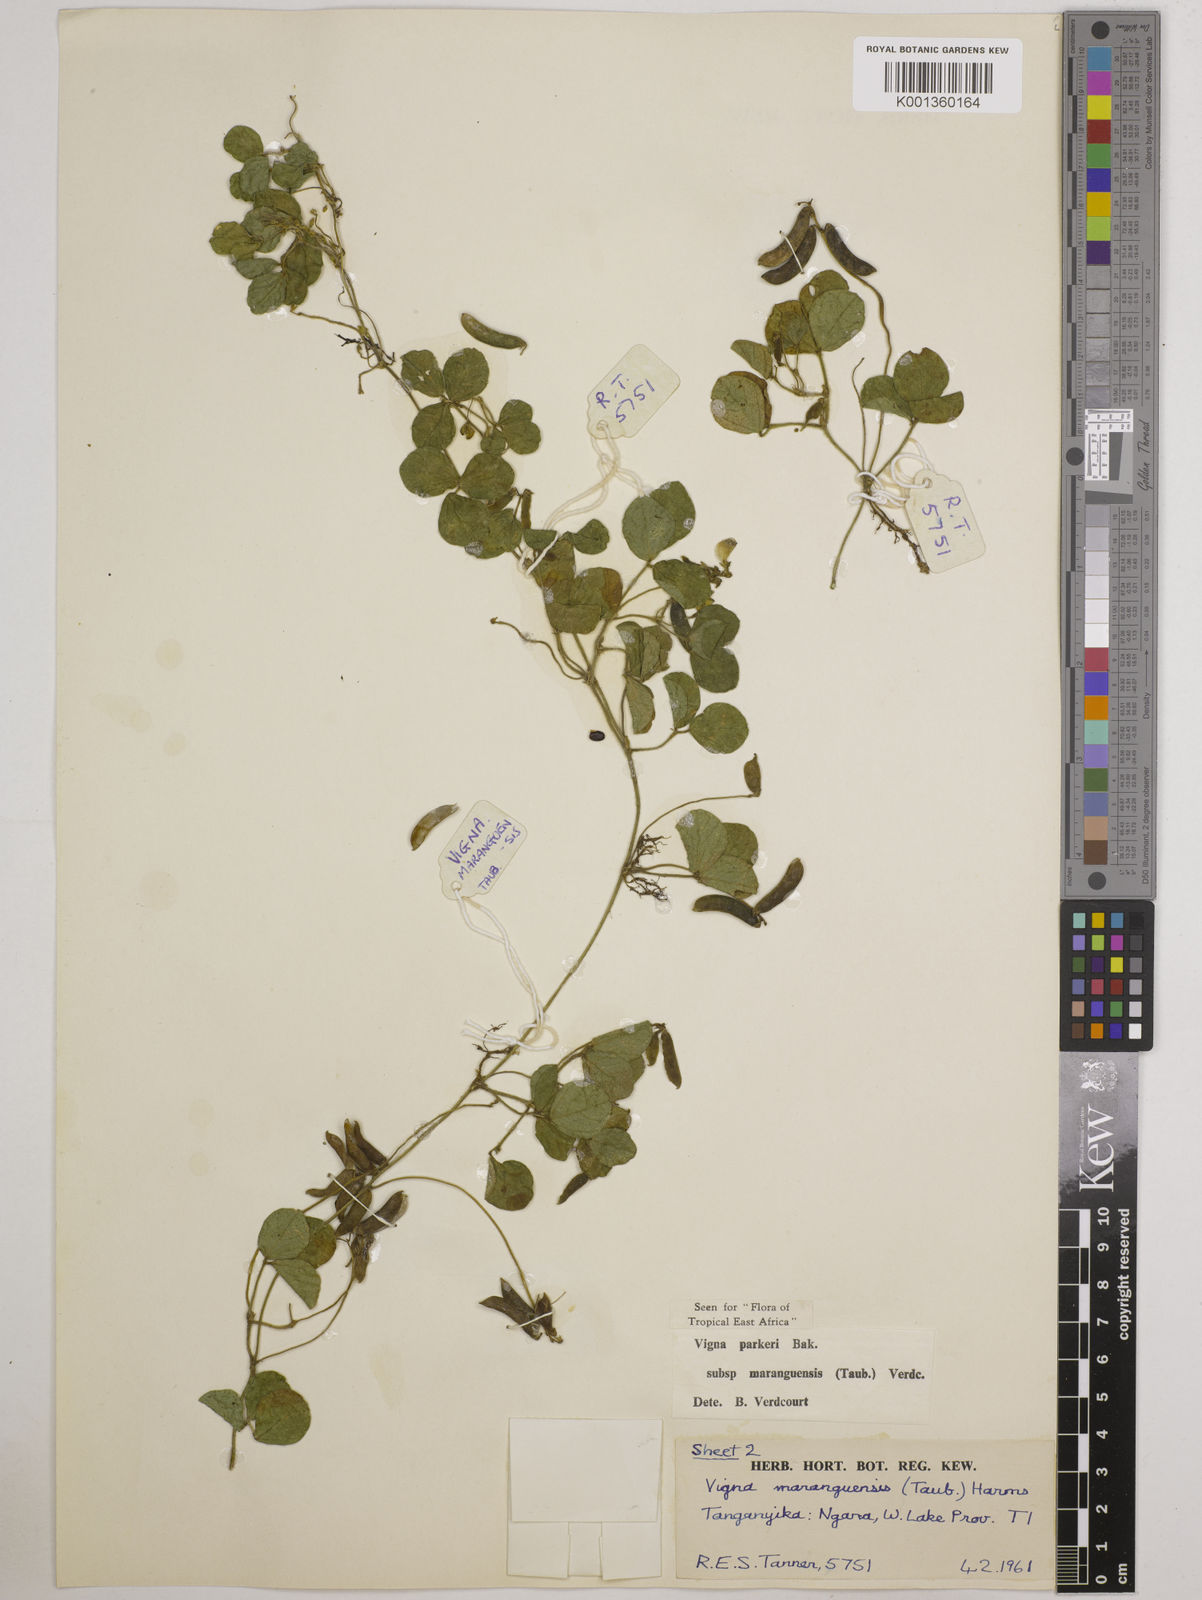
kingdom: Plantae
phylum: Tracheophyta
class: Magnoliopsida
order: Fabales
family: Fabaceae
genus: Vigna
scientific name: Vigna
